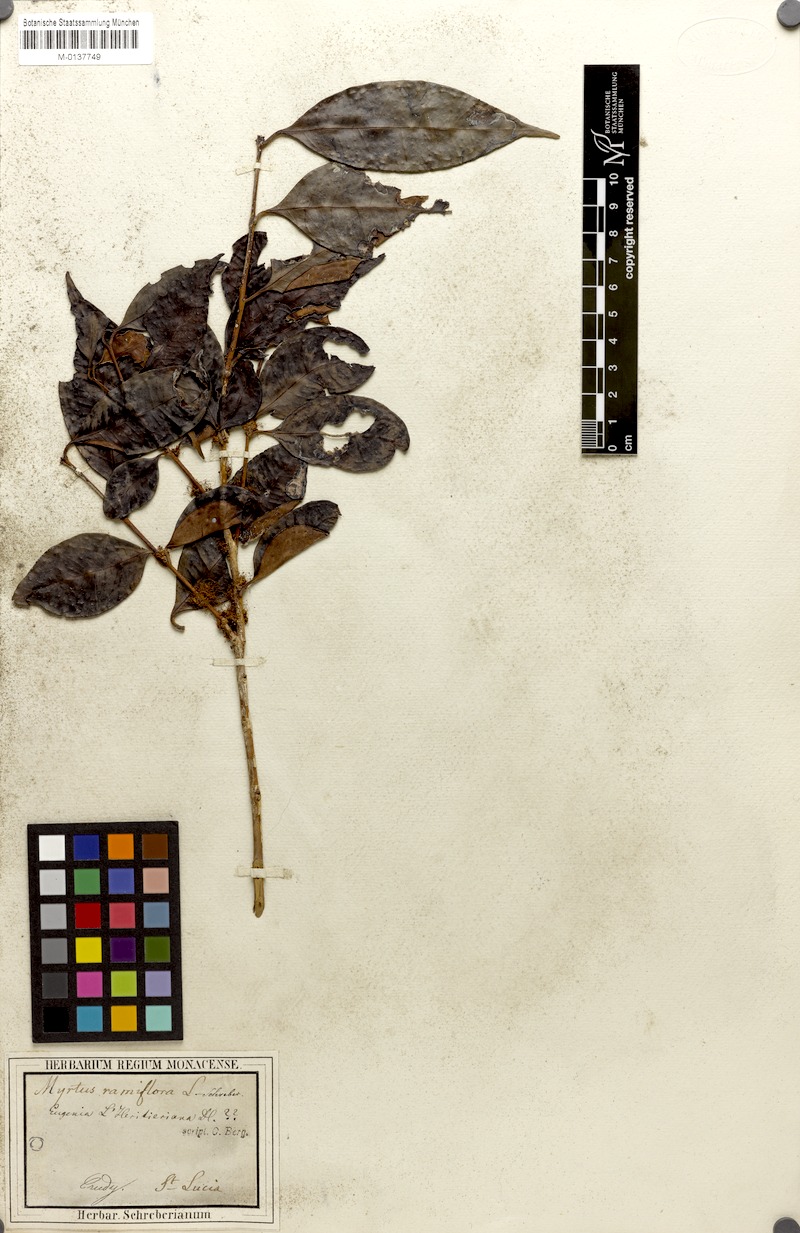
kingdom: Plantae
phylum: Tracheophyta
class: Magnoliopsida
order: Myrtales
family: Myrtaceae
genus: Myrtus
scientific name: Myrtus ramiflora
